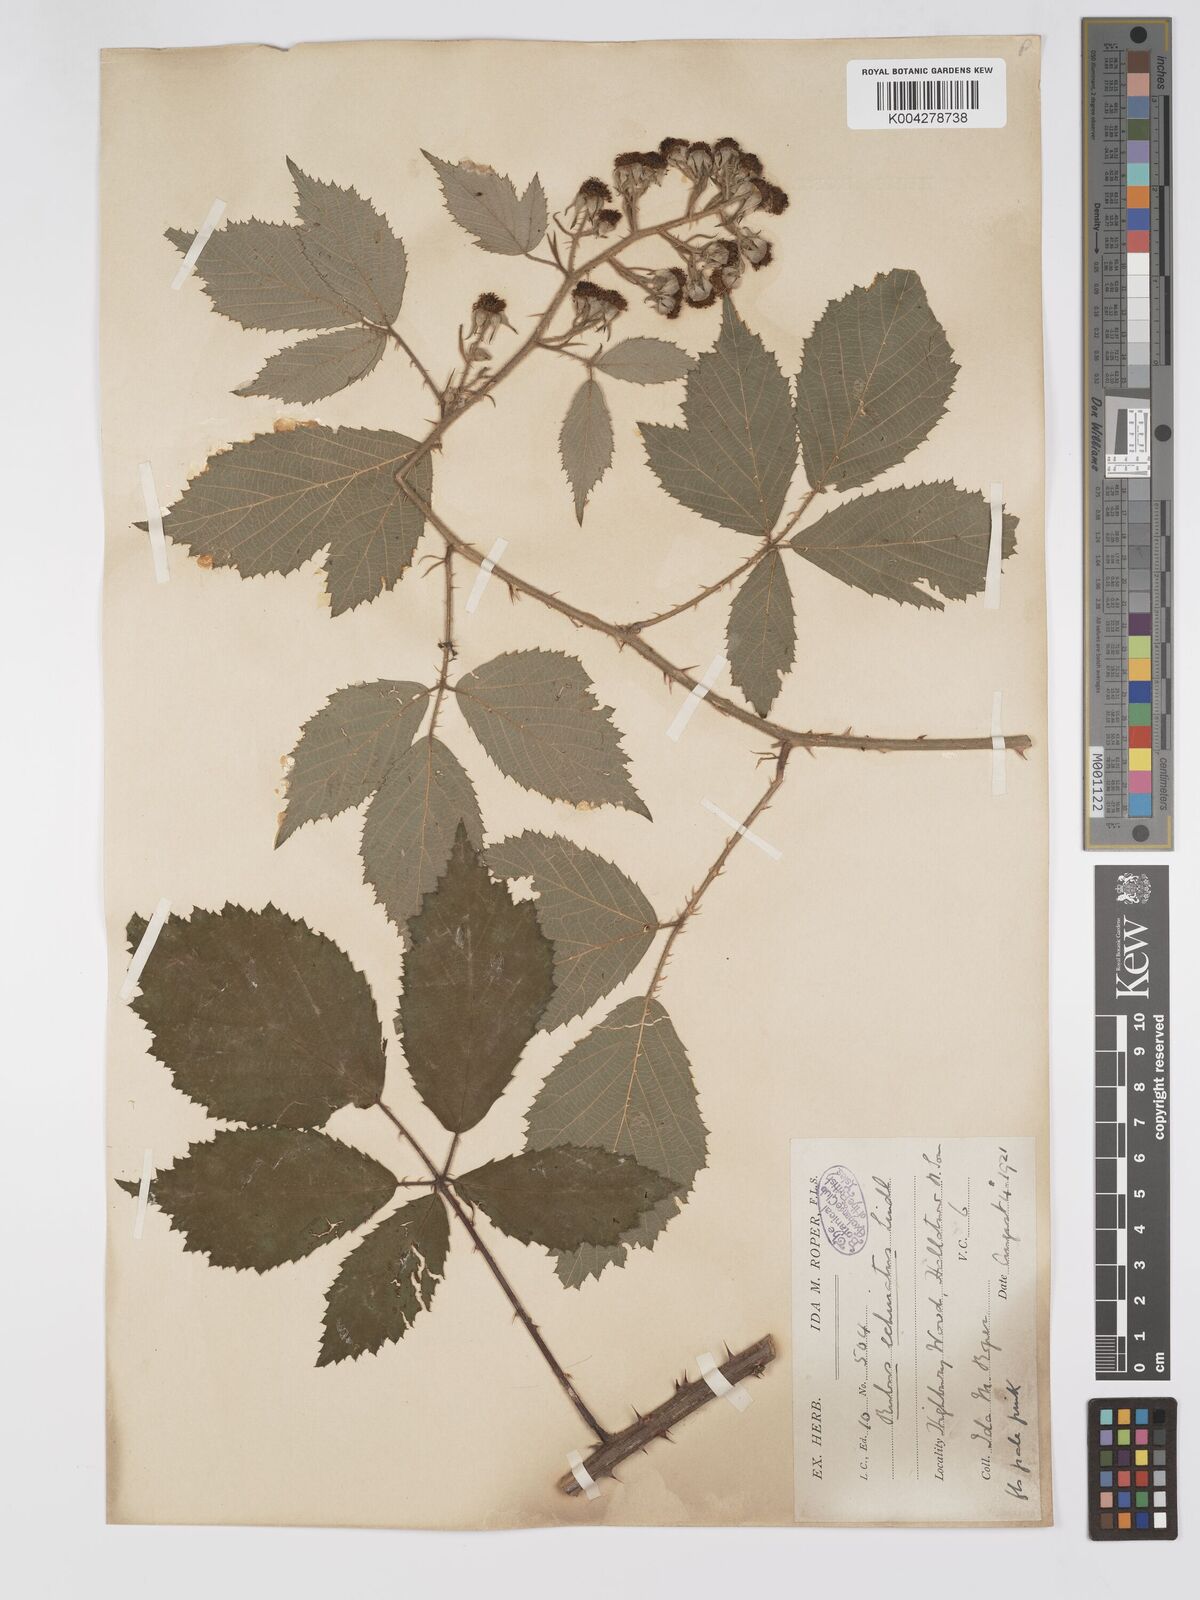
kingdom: Plantae
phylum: Tracheophyta
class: Magnoliopsida
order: Rosales
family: Rosaceae
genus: Rubus
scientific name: Rubus echinatus
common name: Echinate bramble
